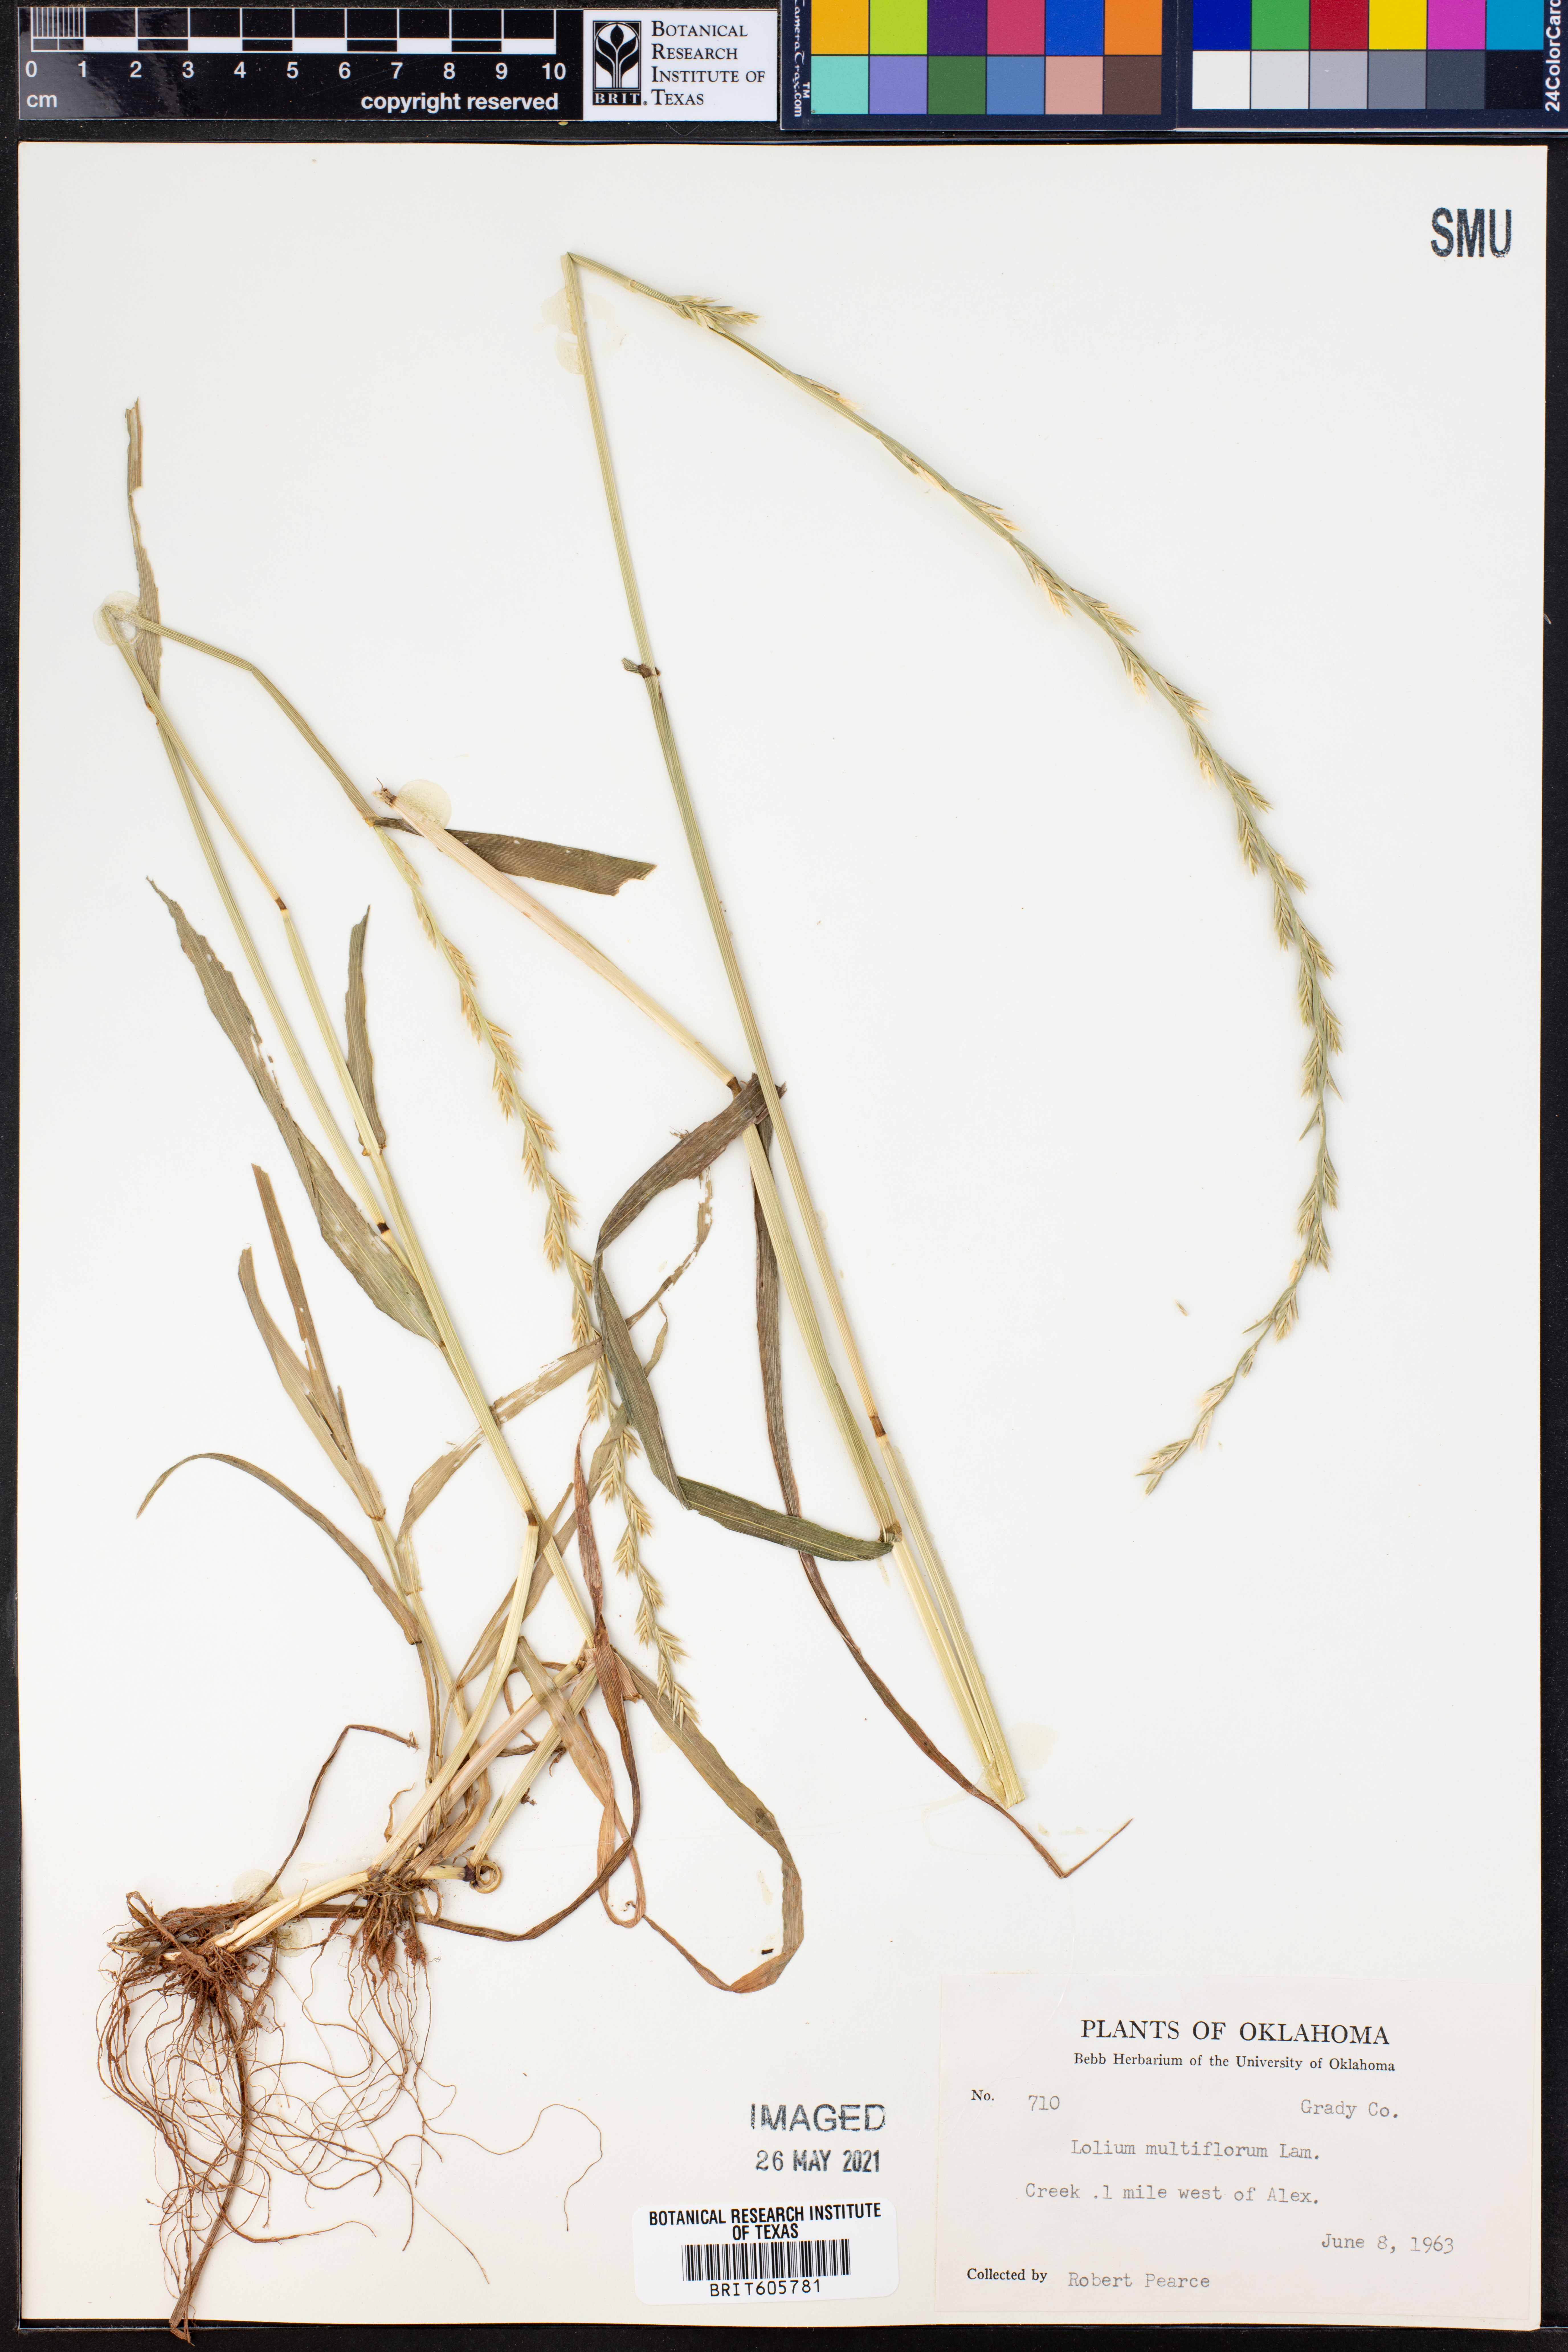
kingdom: Plantae
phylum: Tracheophyta
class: Liliopsida
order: Poales
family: Poaceae
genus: Lolium
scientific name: Lolium multiflorum
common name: Annual ryegrass
